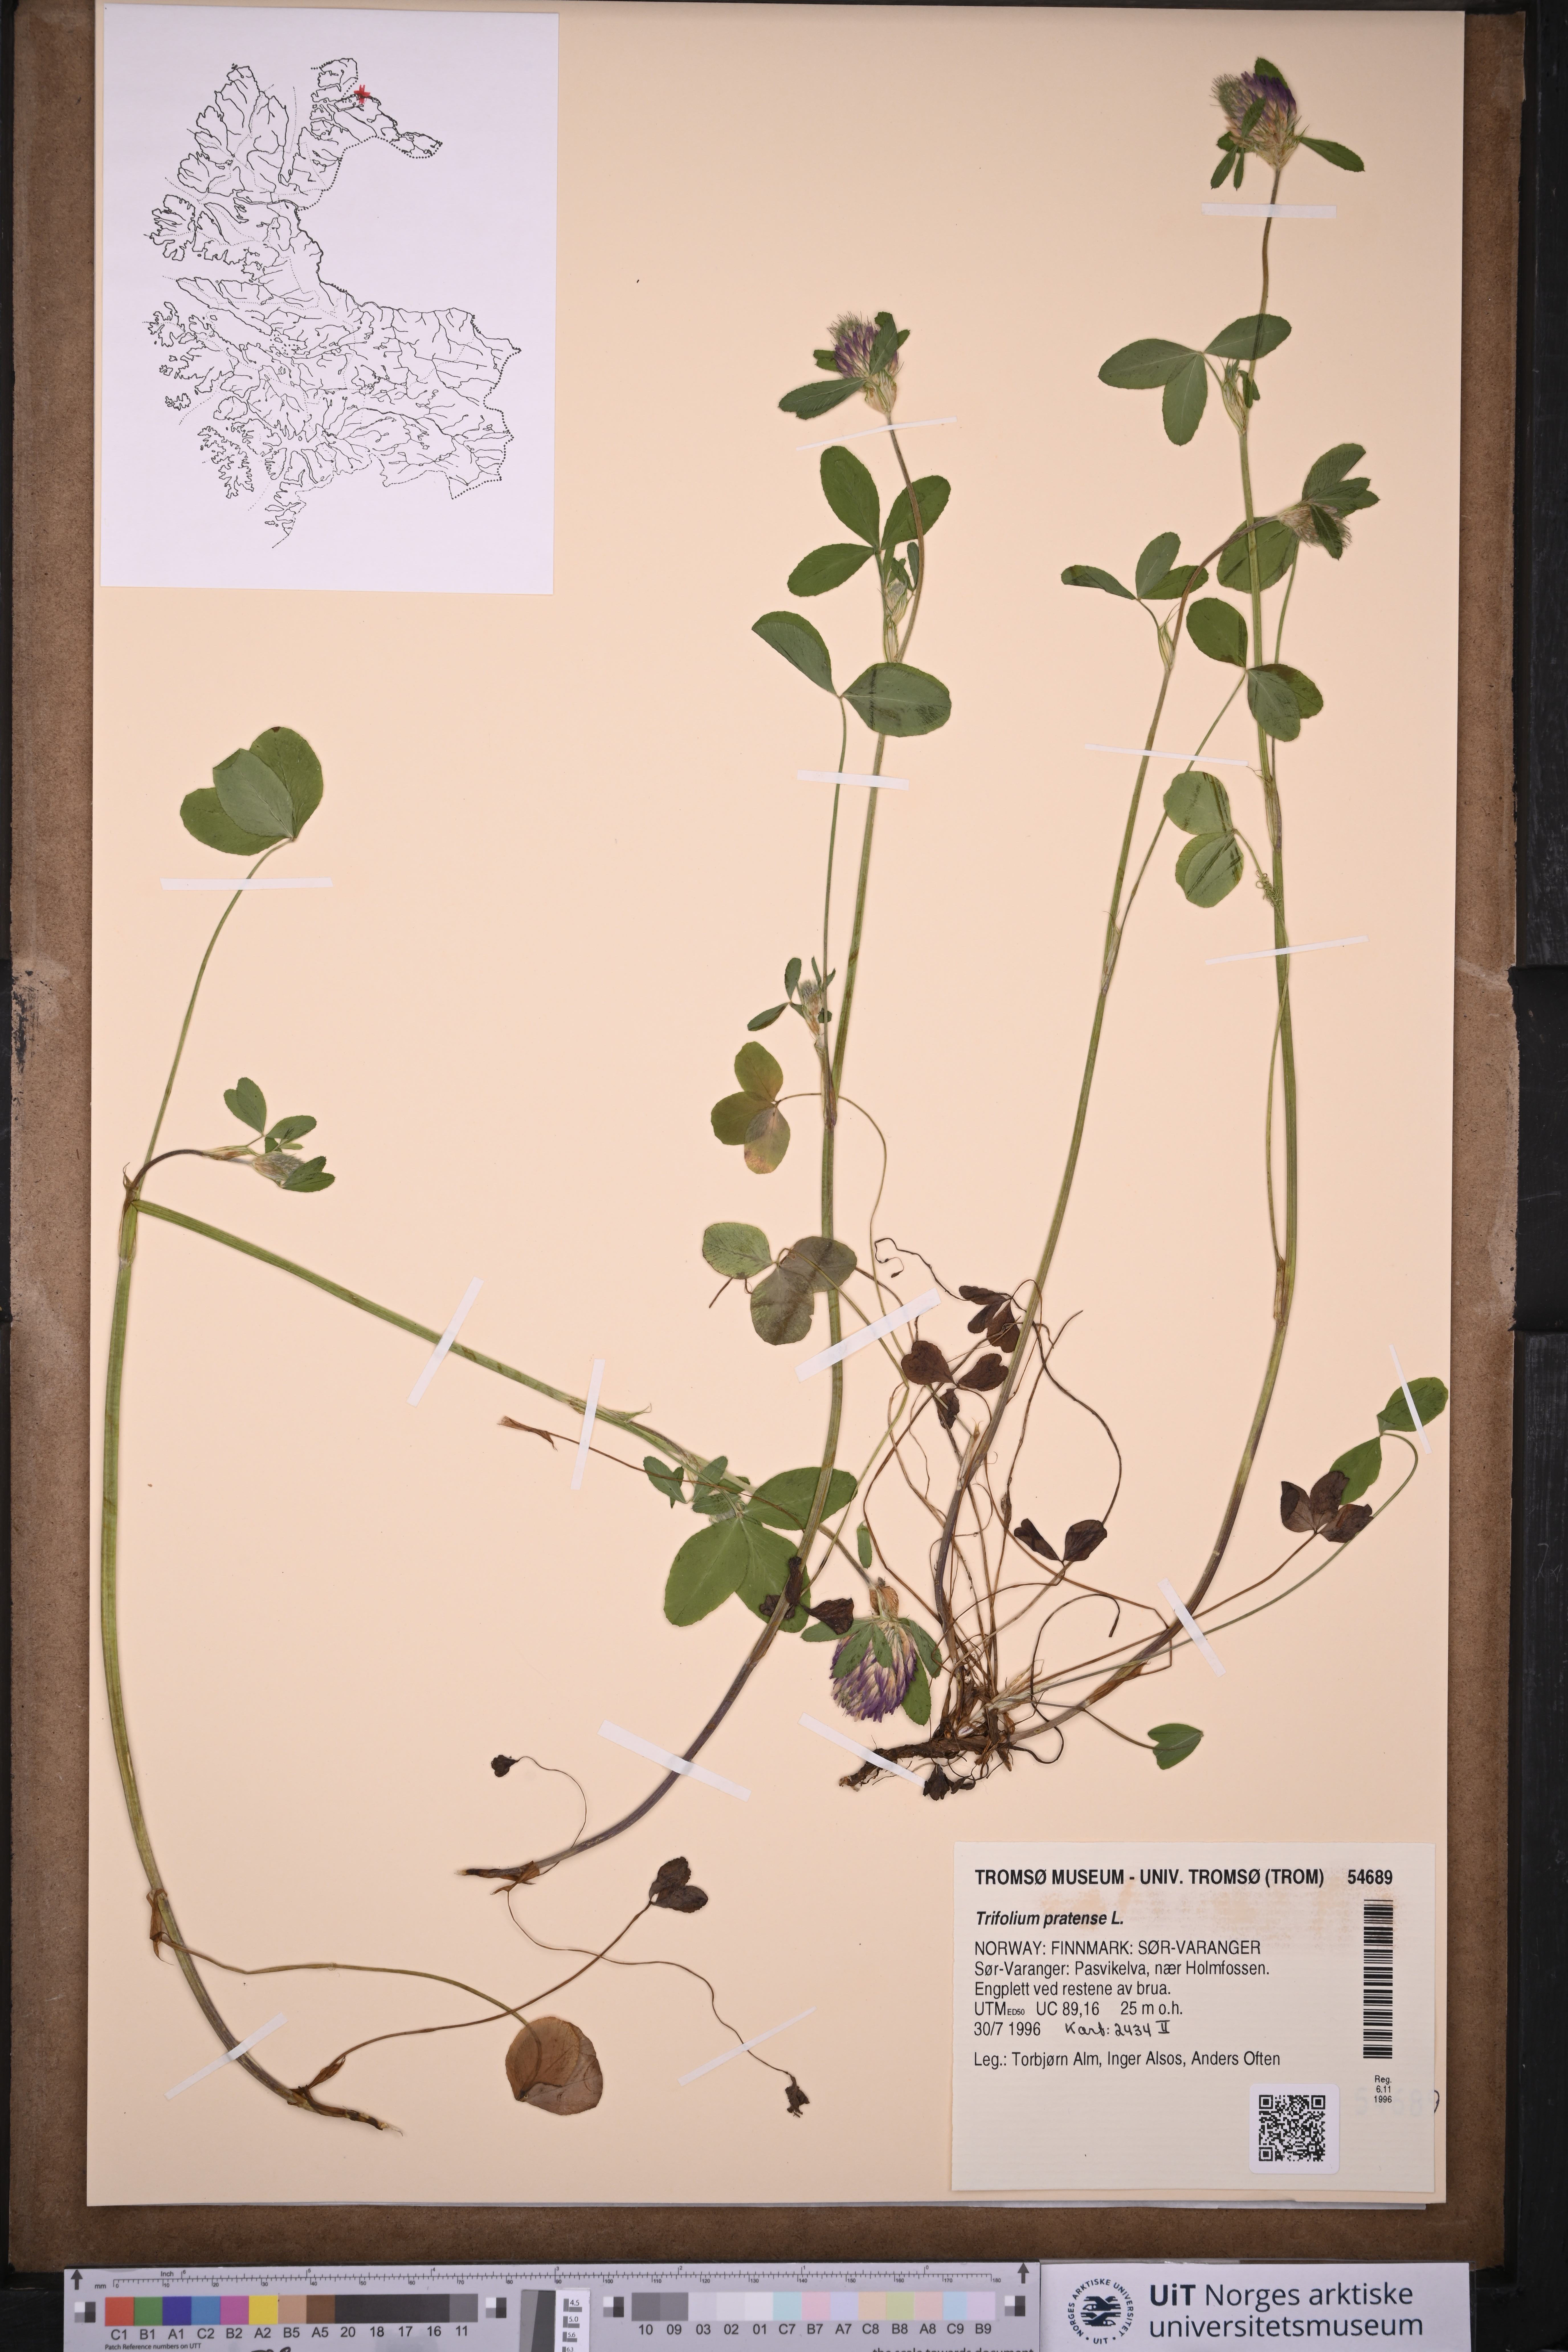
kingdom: Plantae
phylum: Tracheophyta
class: Magnoliopsida
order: Fabales
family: Fabaceae
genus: Trifolium
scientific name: Trifolium pratense
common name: Red clover
